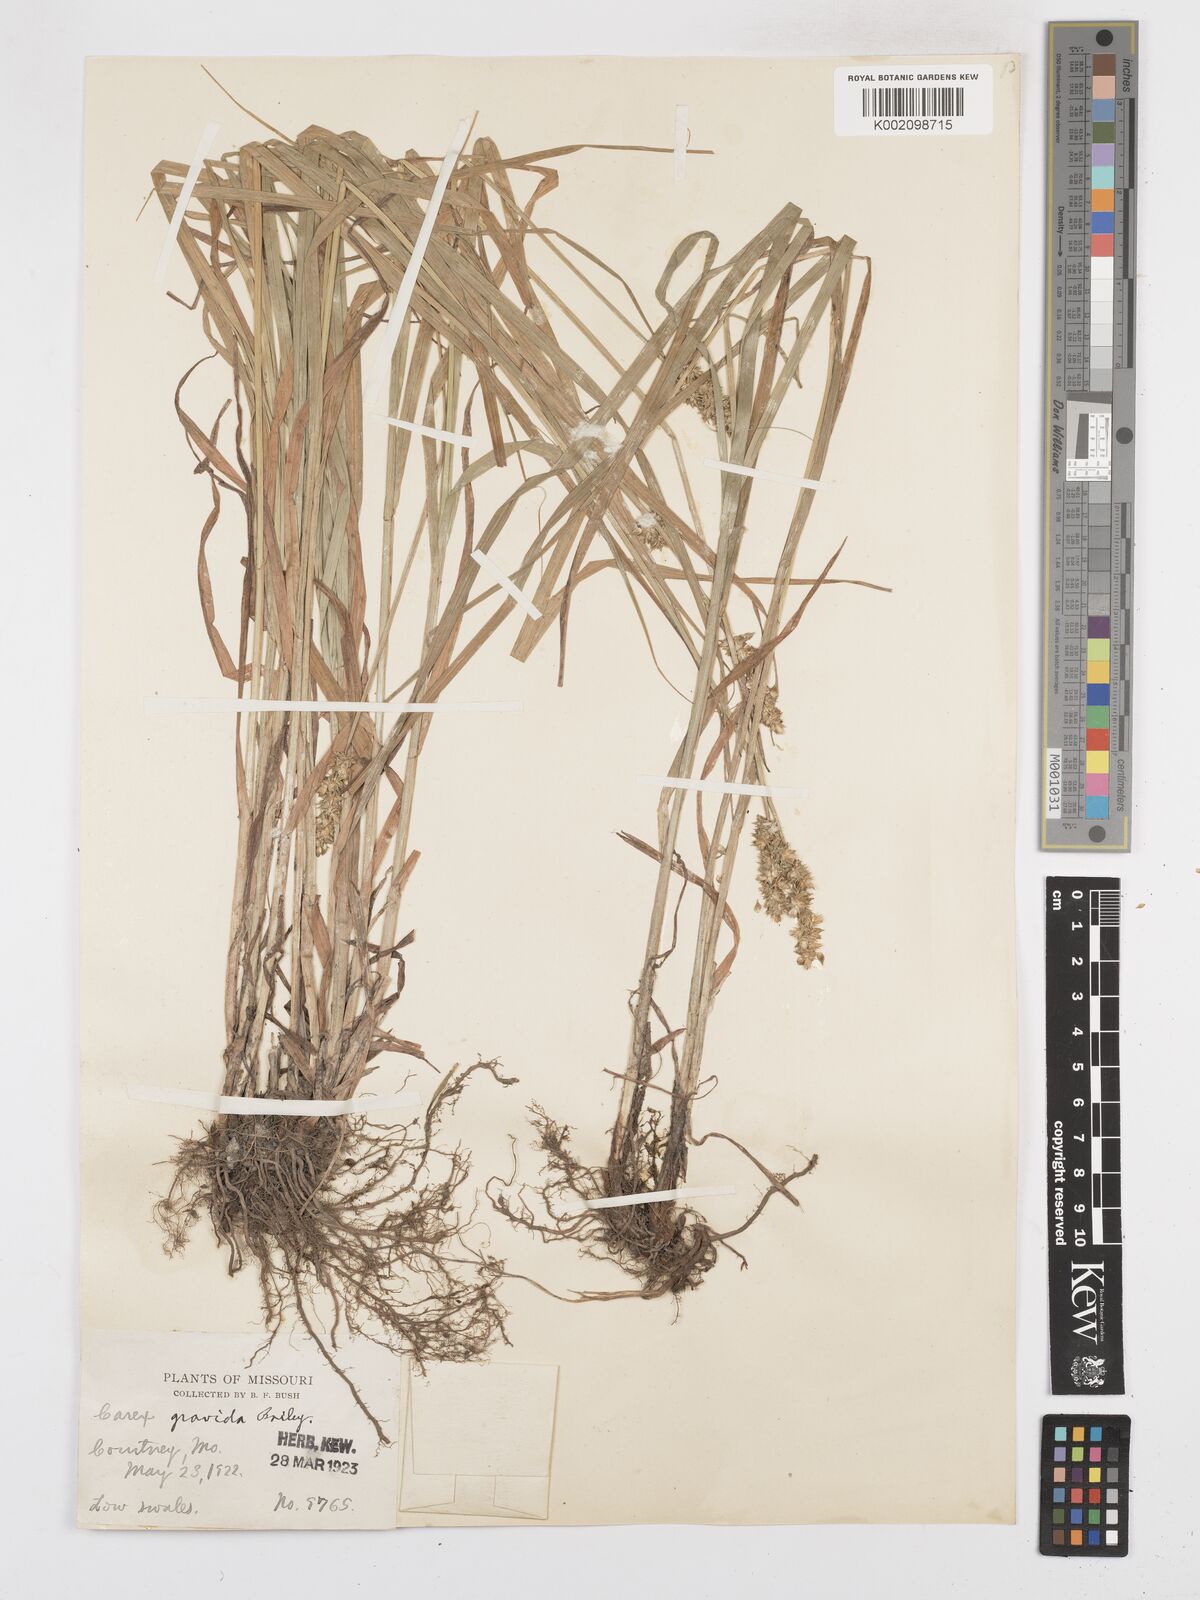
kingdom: Plantae
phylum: Tracheophyta
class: Liliopsida
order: Poales
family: Cyperaceae
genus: Carex
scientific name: Carex gravida
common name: Heavy sedge
